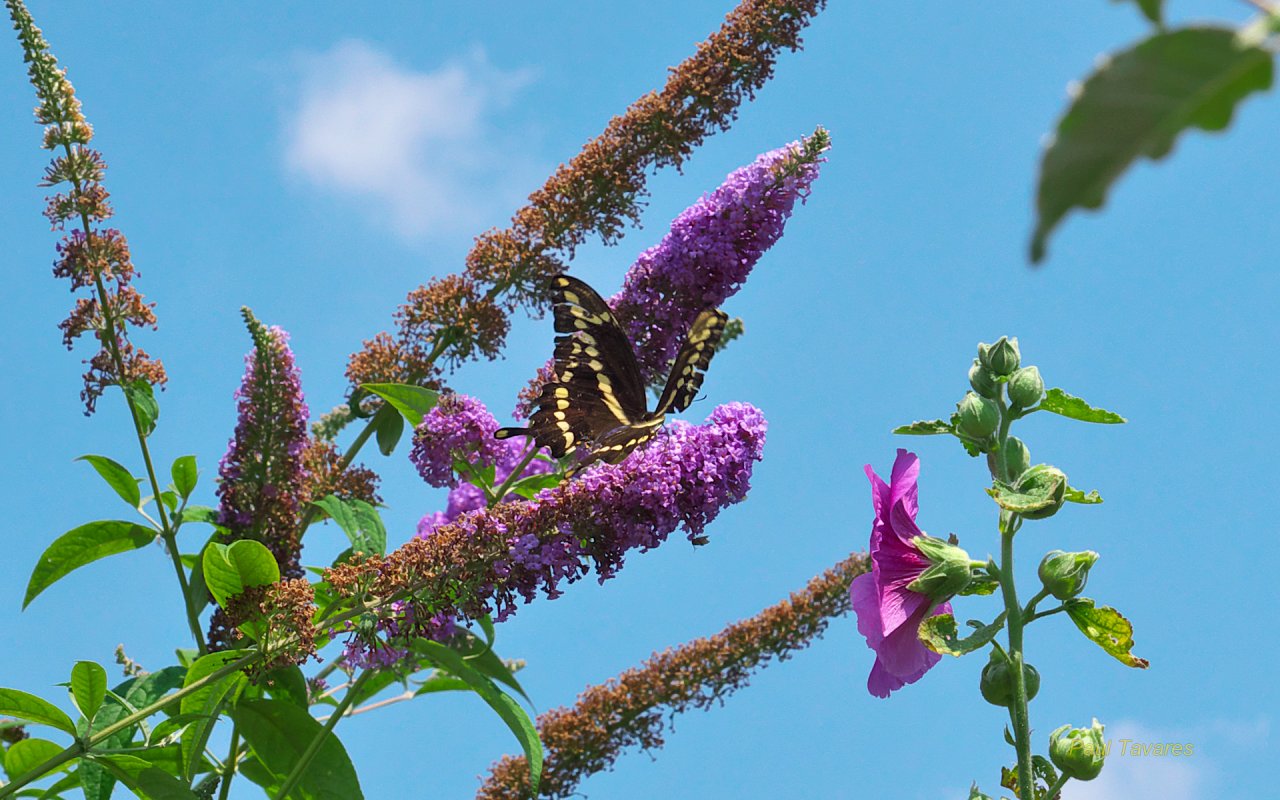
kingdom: Animalia
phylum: Arthropoda
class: Insecta
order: Lepidoptera
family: Papilionidae
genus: Papilio
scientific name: Papilio cresphontes
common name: Eastern Giant Swallowtail
